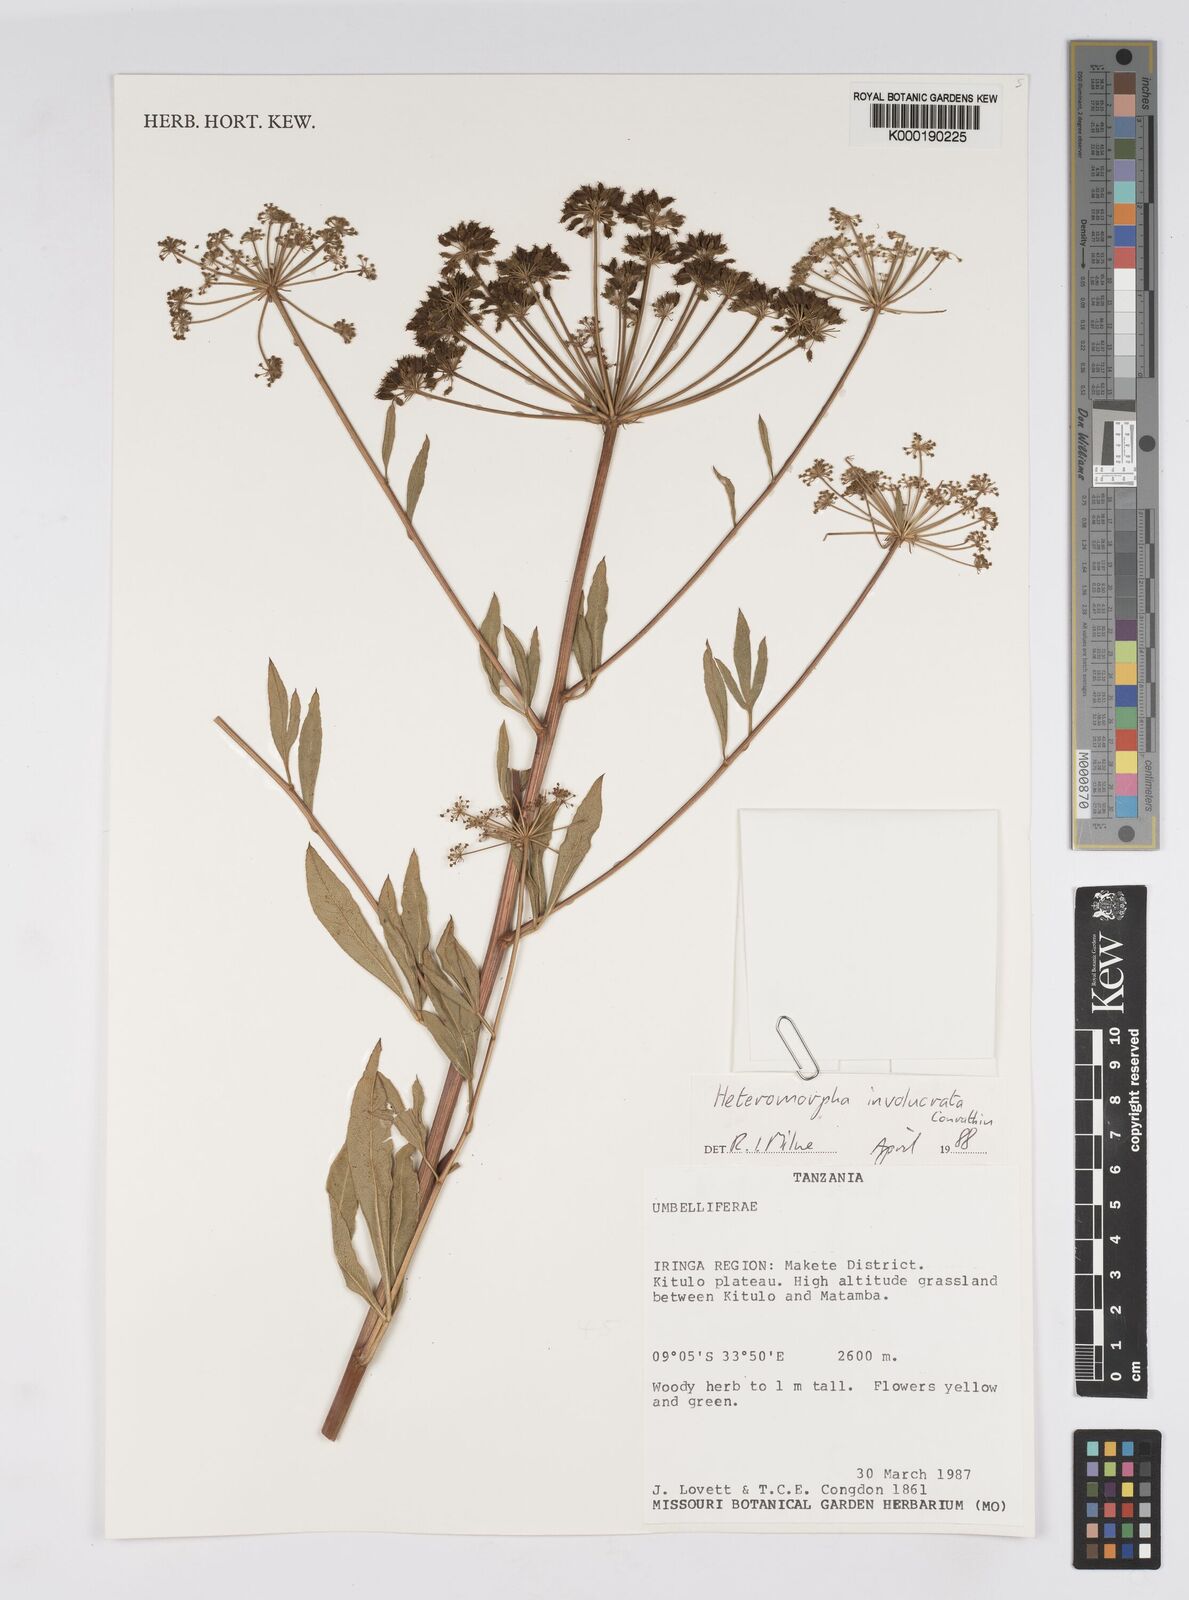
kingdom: Plantae
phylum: Tracheophyta
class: Magnoliopsida
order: Apiales
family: Apiaceae
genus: Heteromorpha
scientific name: Heteromorpha involucrata
